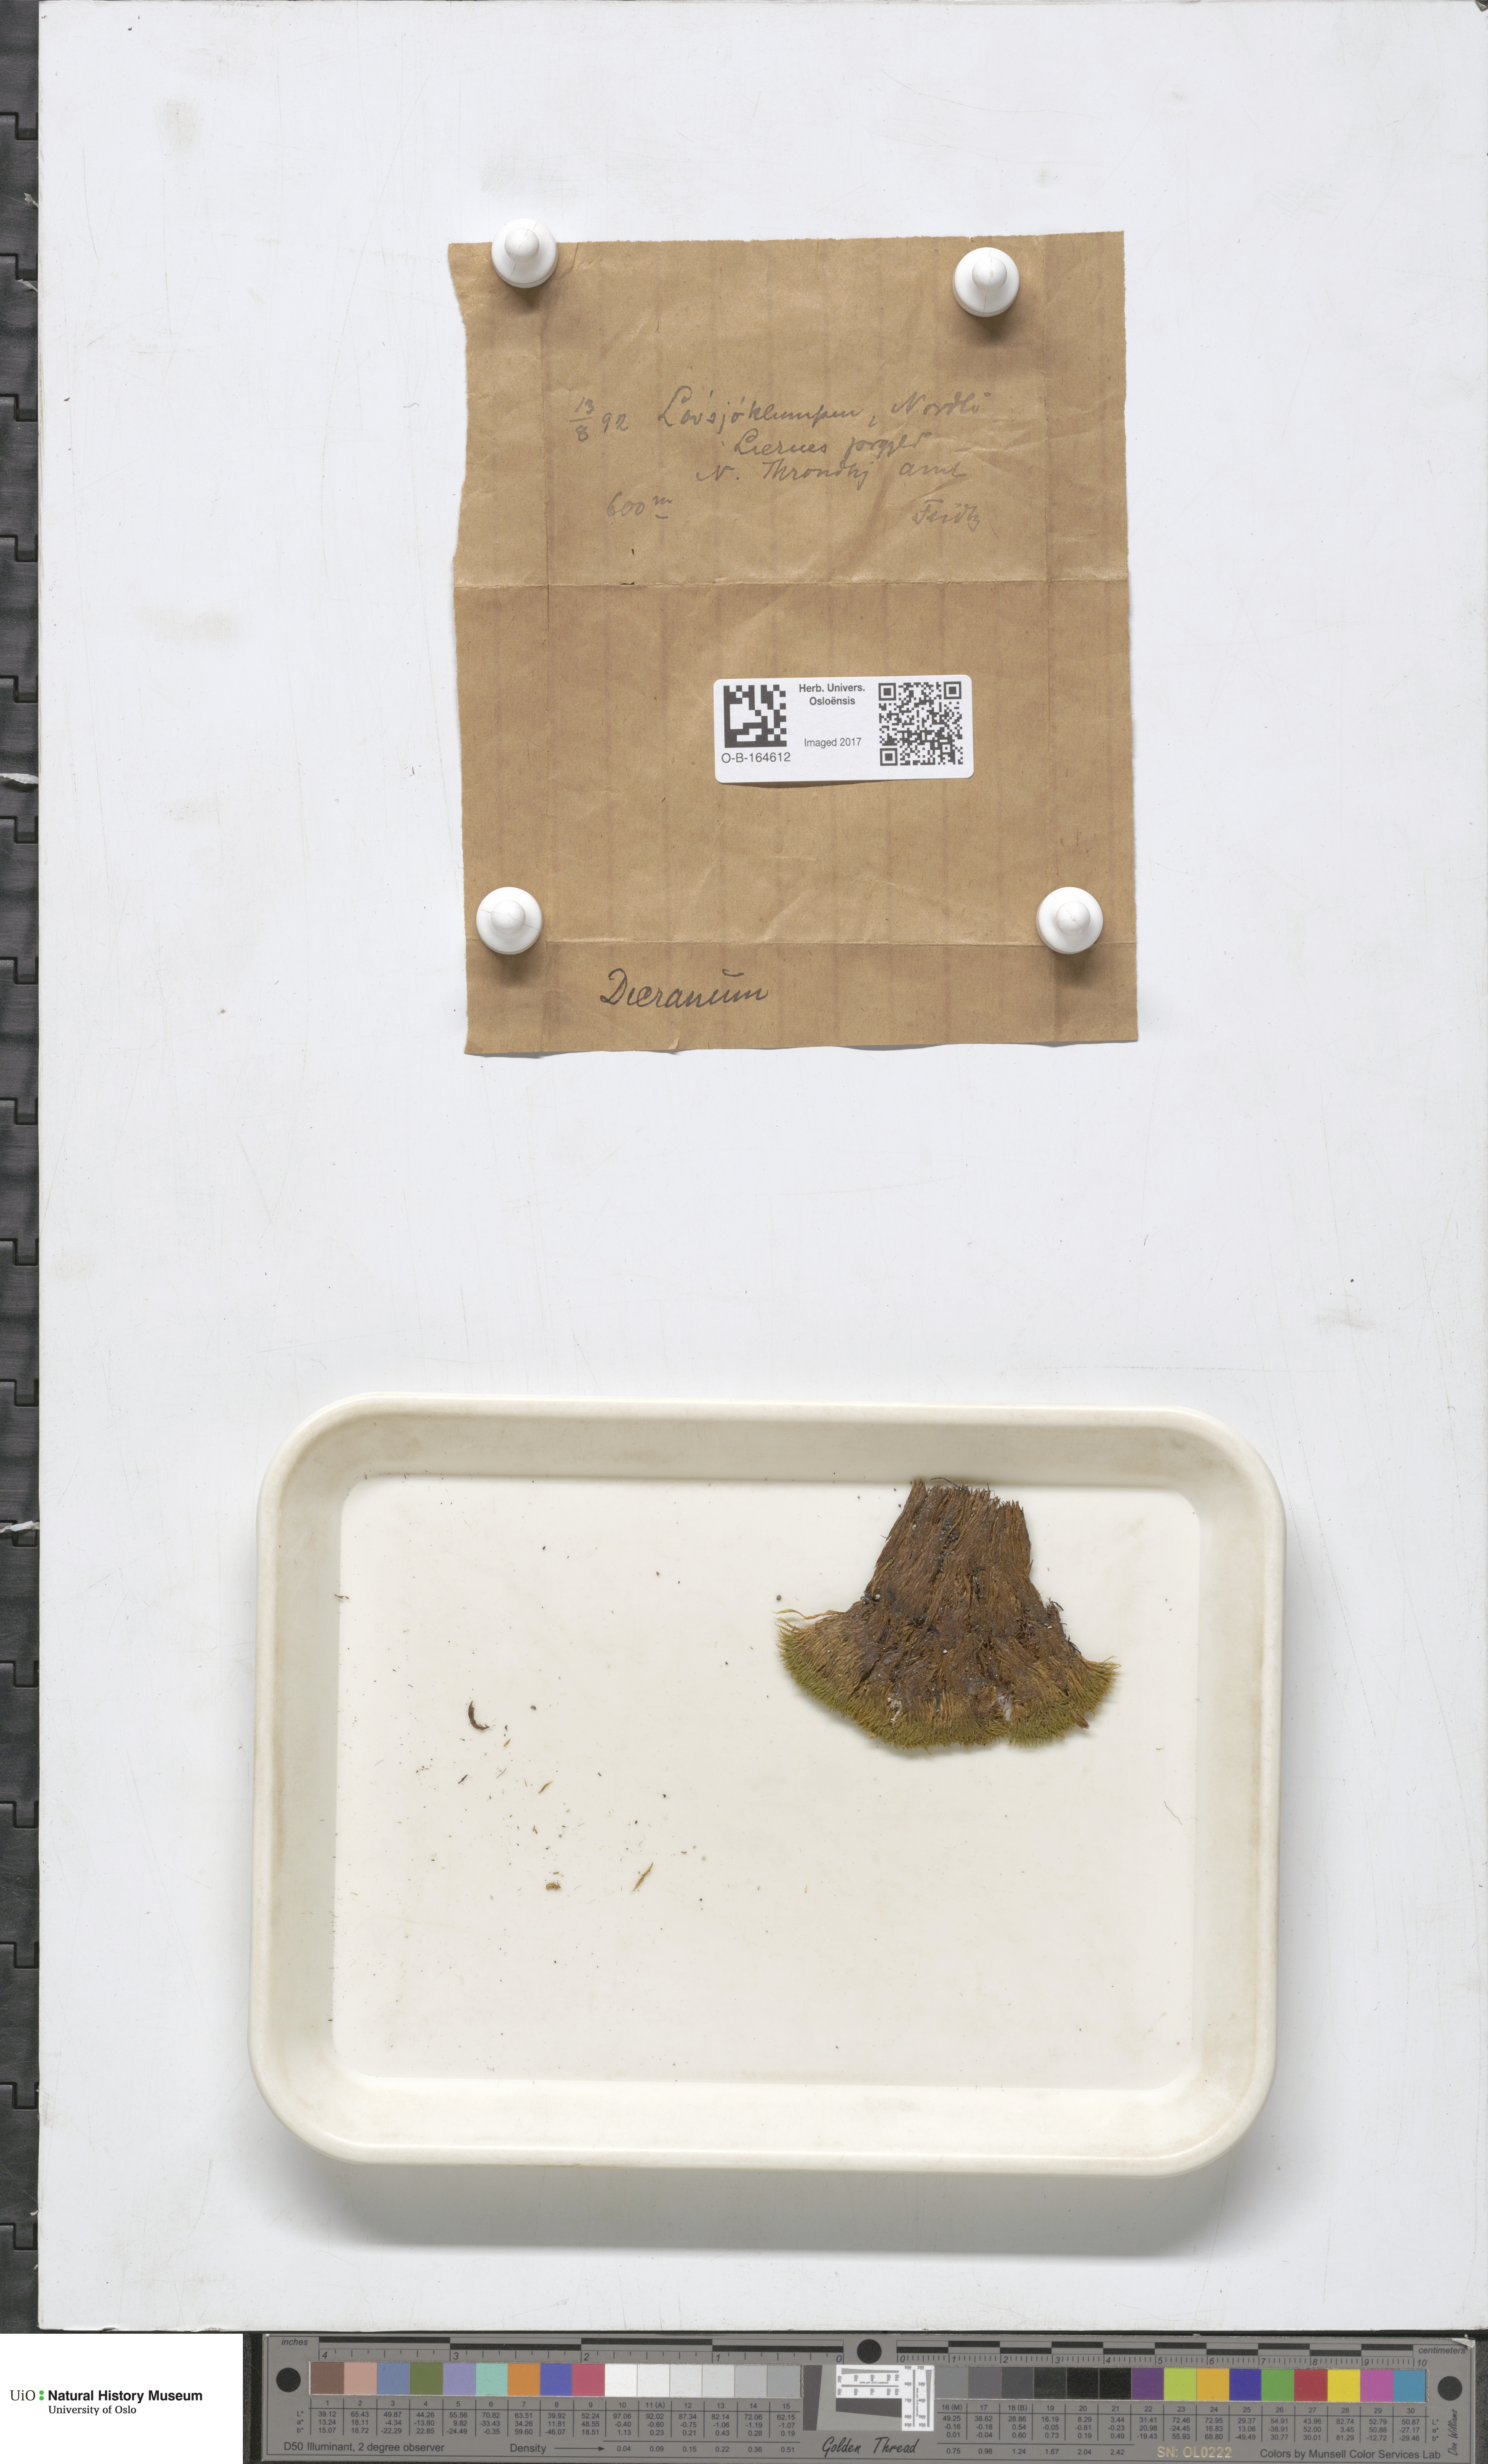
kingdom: Plantae
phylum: Bryophyta
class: Bryopsida
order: Dicranales
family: Dicranaceae
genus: Dicranum
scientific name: Dicranum
